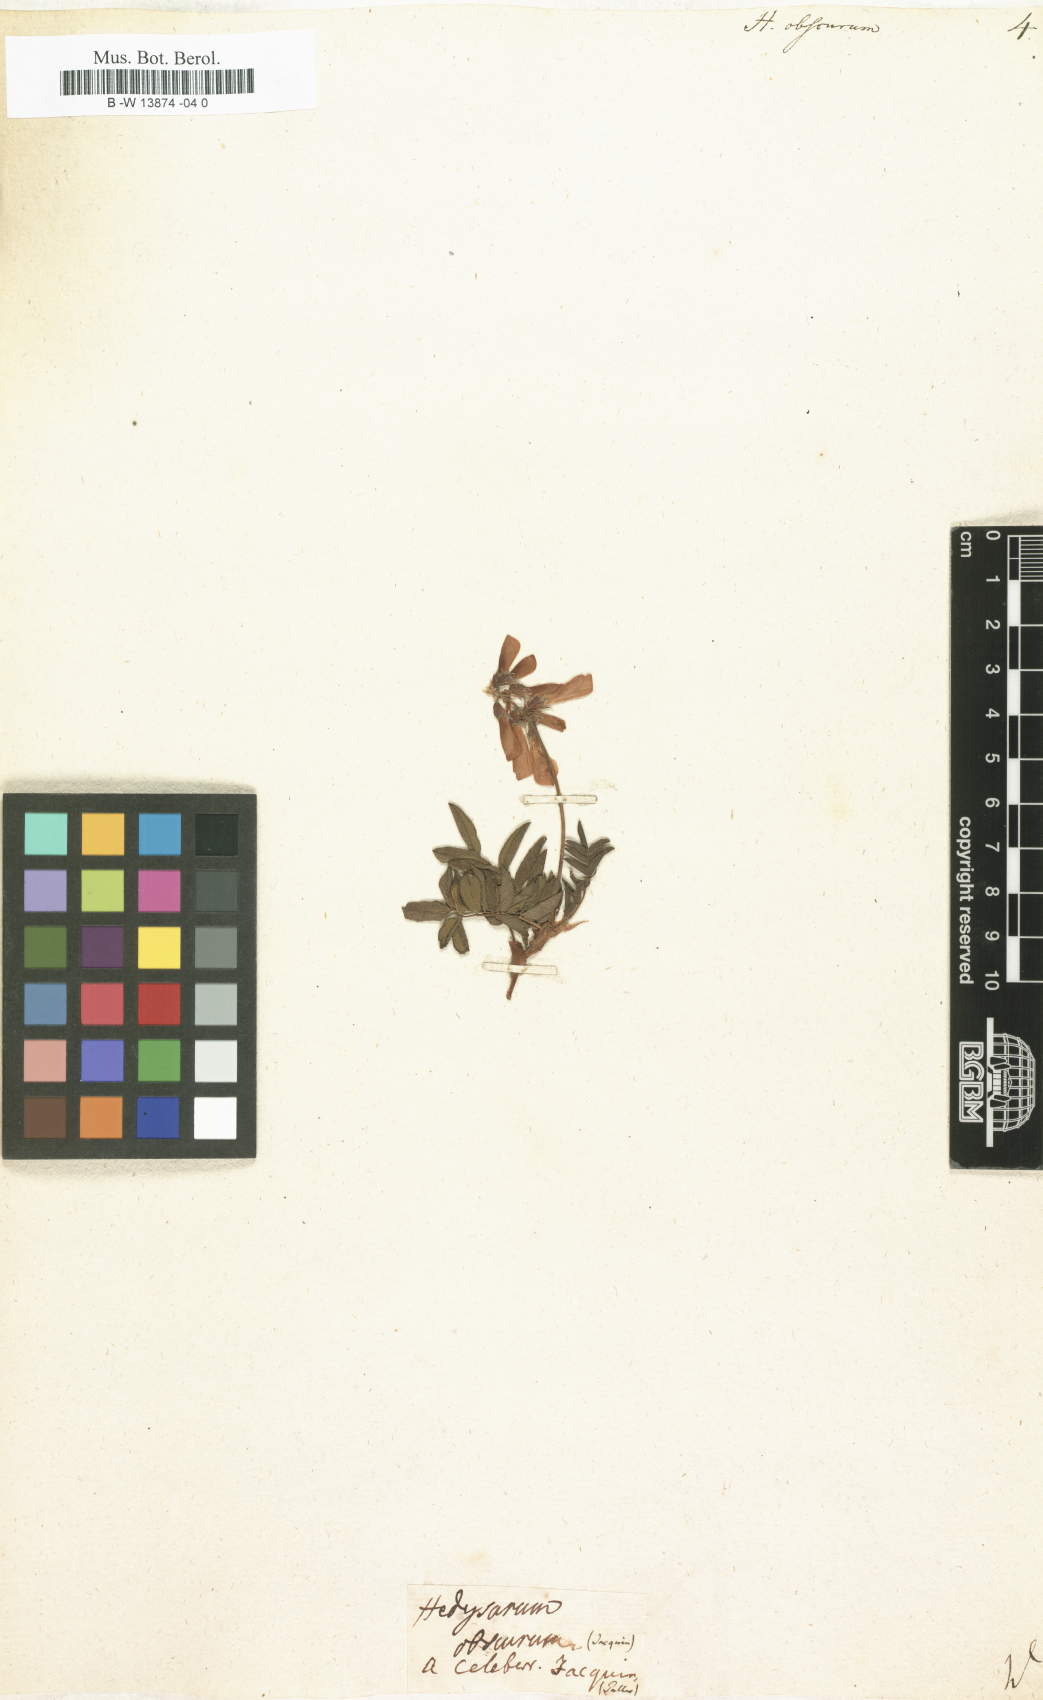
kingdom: Plantae
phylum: Tracheophyta
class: Magnoliopsida
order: Fabales
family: Fabaceae
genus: Hedysarum
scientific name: Hedysarum hedysaroides
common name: Alpine french-honeysuckle
